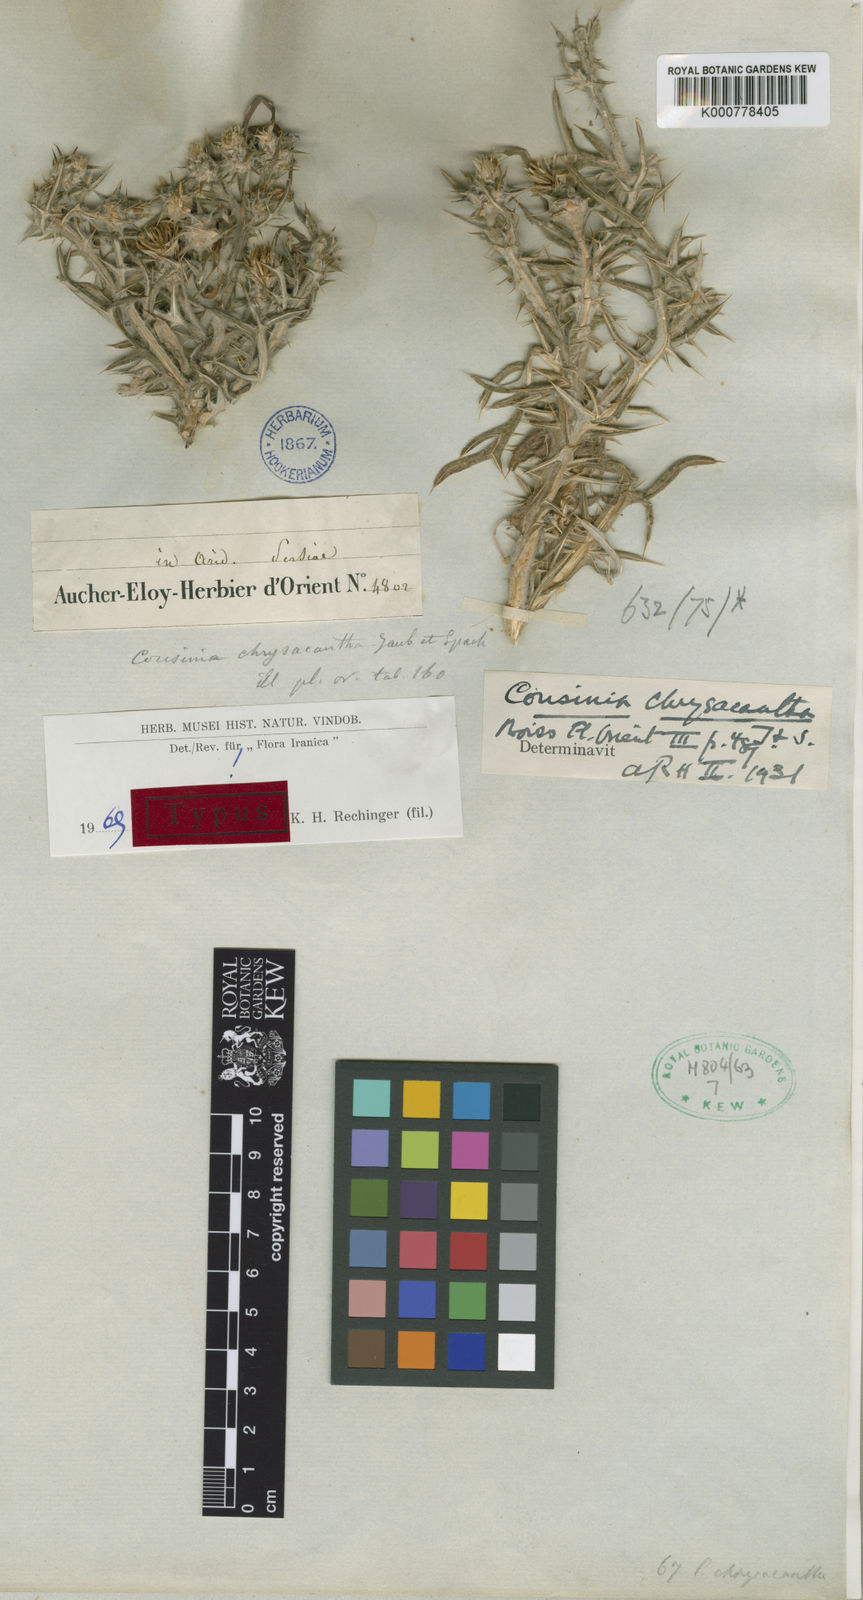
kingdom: Plantae
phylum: Tracheophyta
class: Magnoliopsida
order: Asterales
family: Asteraceae
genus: Cousinia
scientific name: Cousinia chrysacantha
